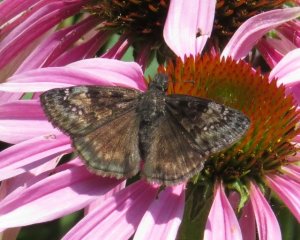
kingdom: Animalia
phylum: Arthropoda
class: Insecta
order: Lepidoptera
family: Hesperiidae
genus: Gesta
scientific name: Gesta
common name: Wild Indigo Duskywing
